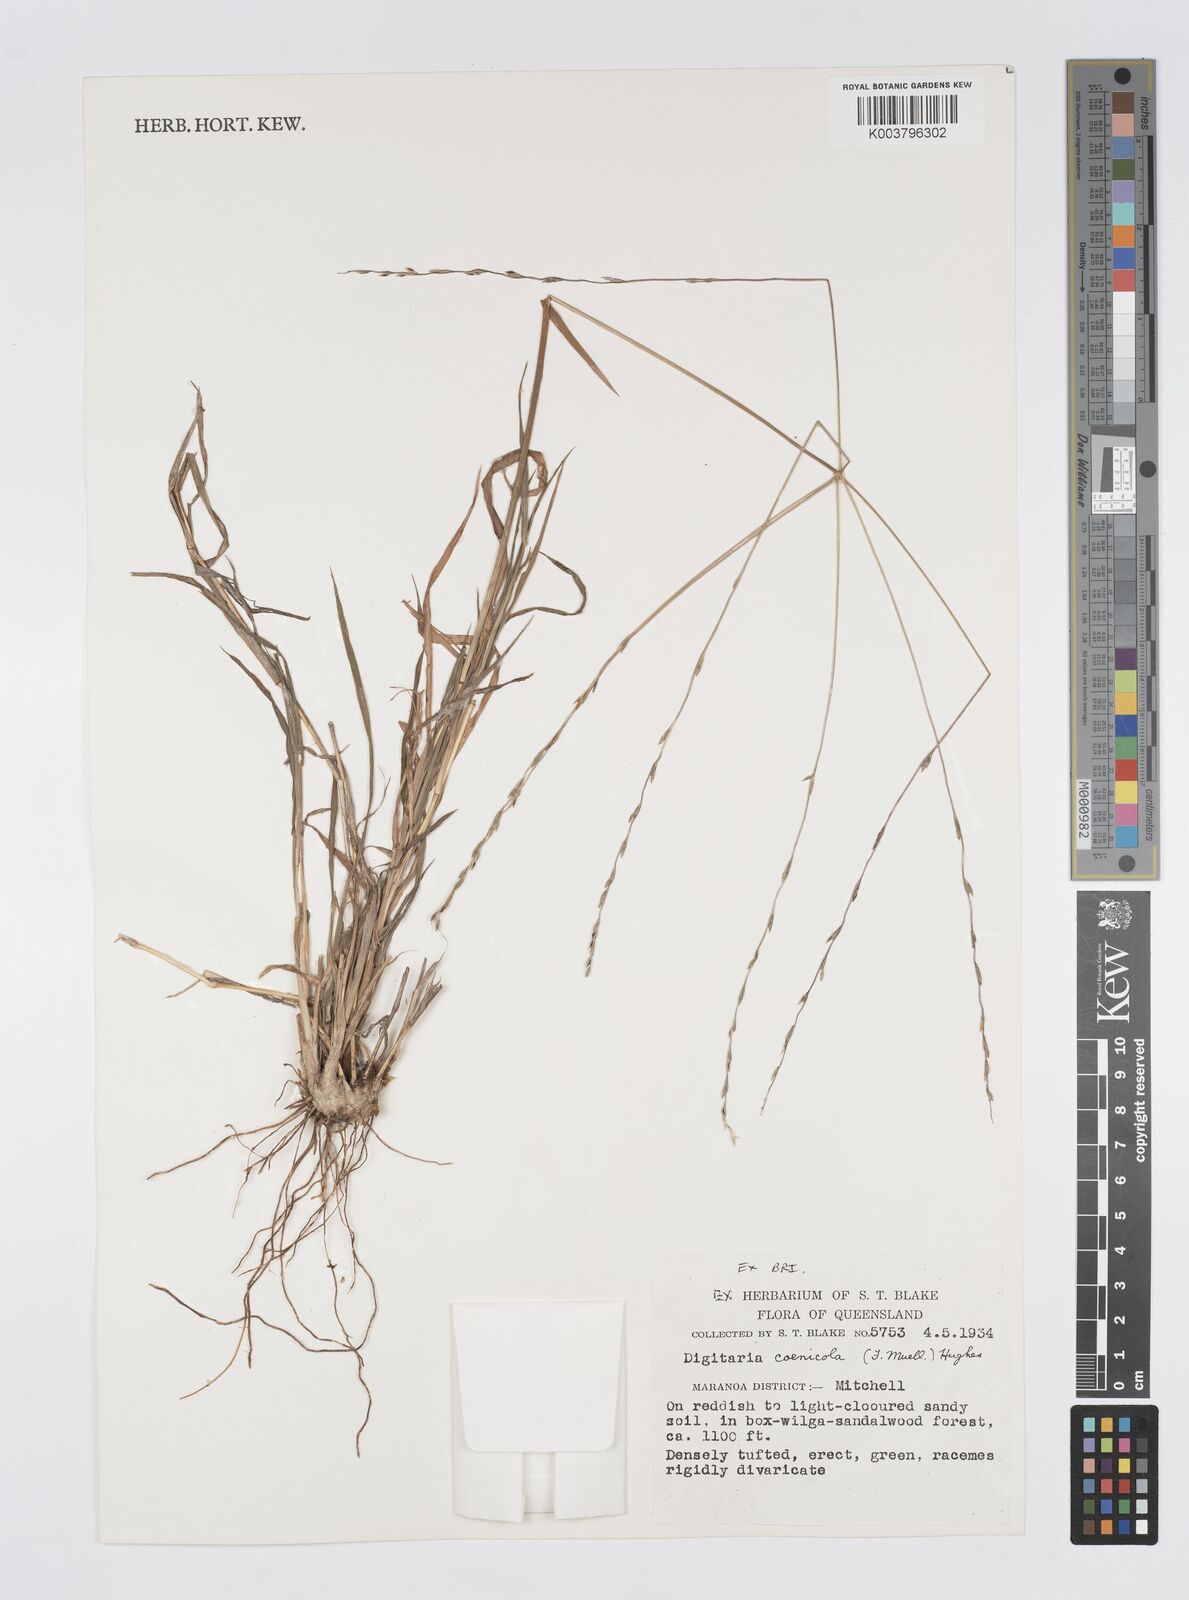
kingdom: Plantae
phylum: Tracheophyta
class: Liliopsida
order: Poales
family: Poaceae
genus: Digitaria
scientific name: Digitaria coenicola
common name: Kanta grass
